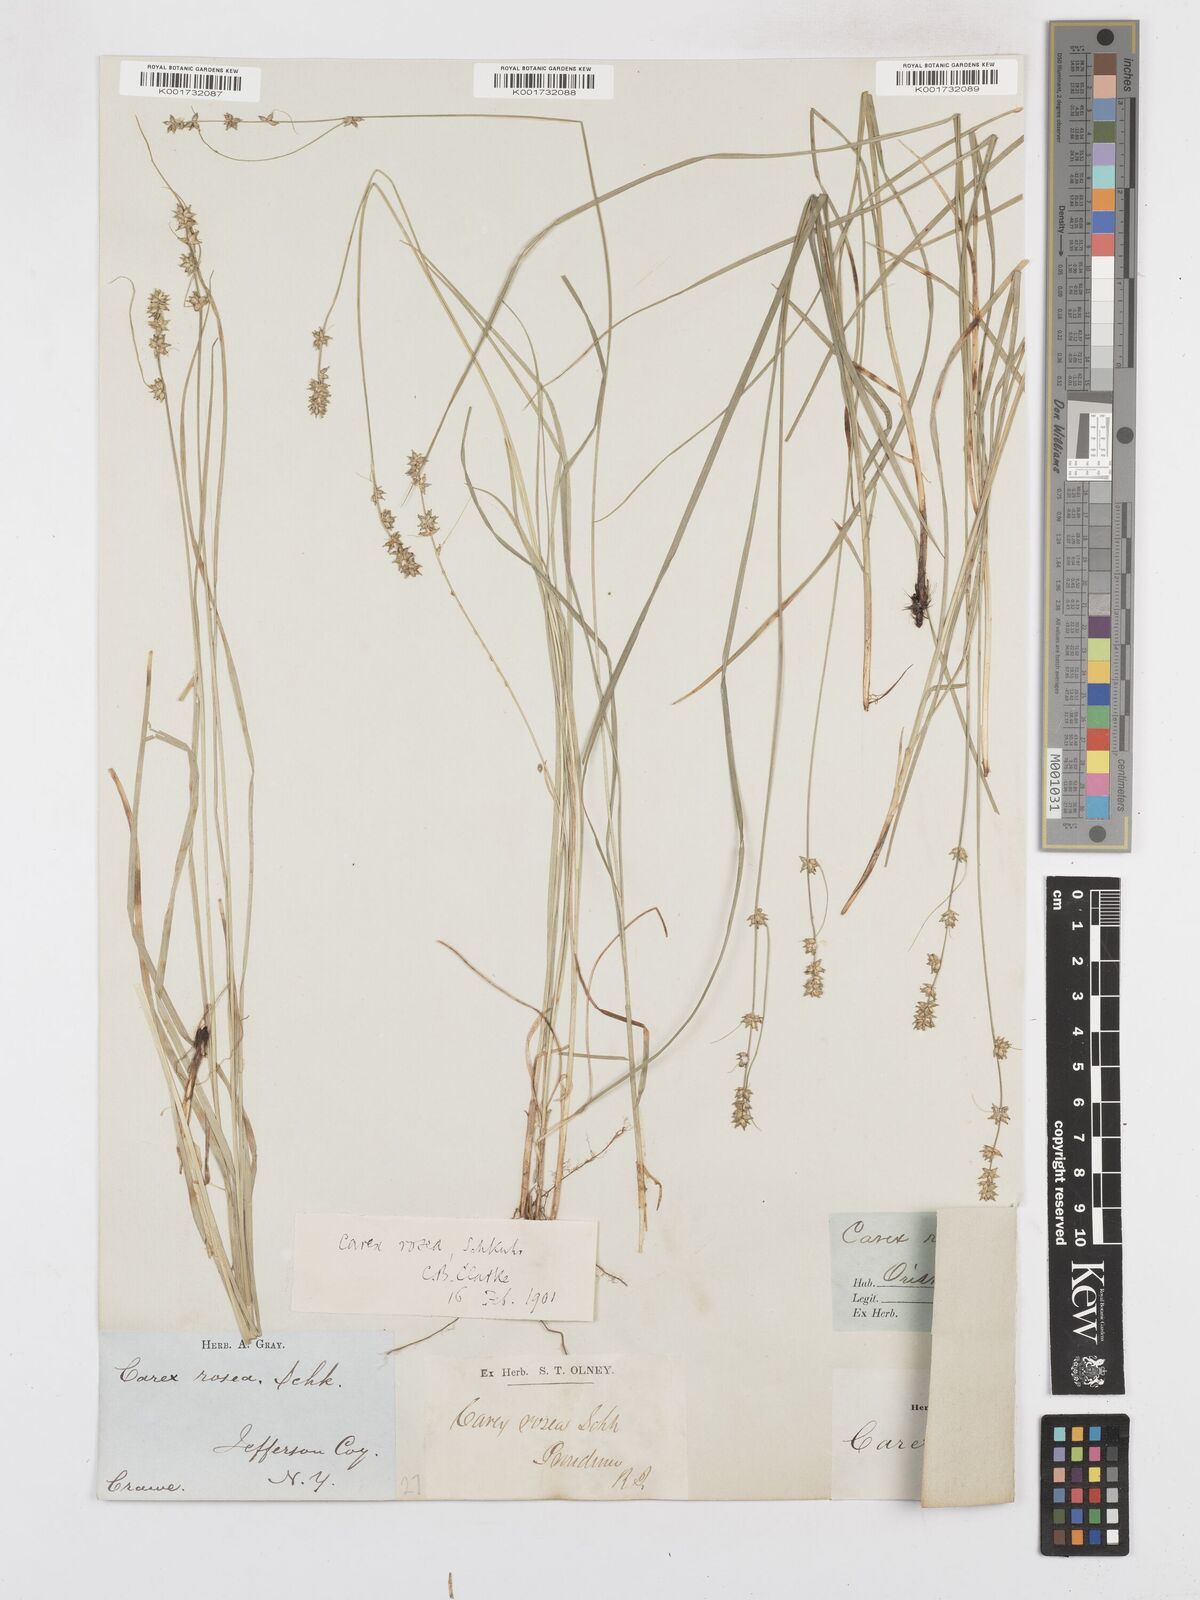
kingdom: Plantae
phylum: Tracheophyta
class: Liliopsida
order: Poales
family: Cyperaceae
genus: Carex
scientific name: Carex rosea
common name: Curly-styled wood sedge
